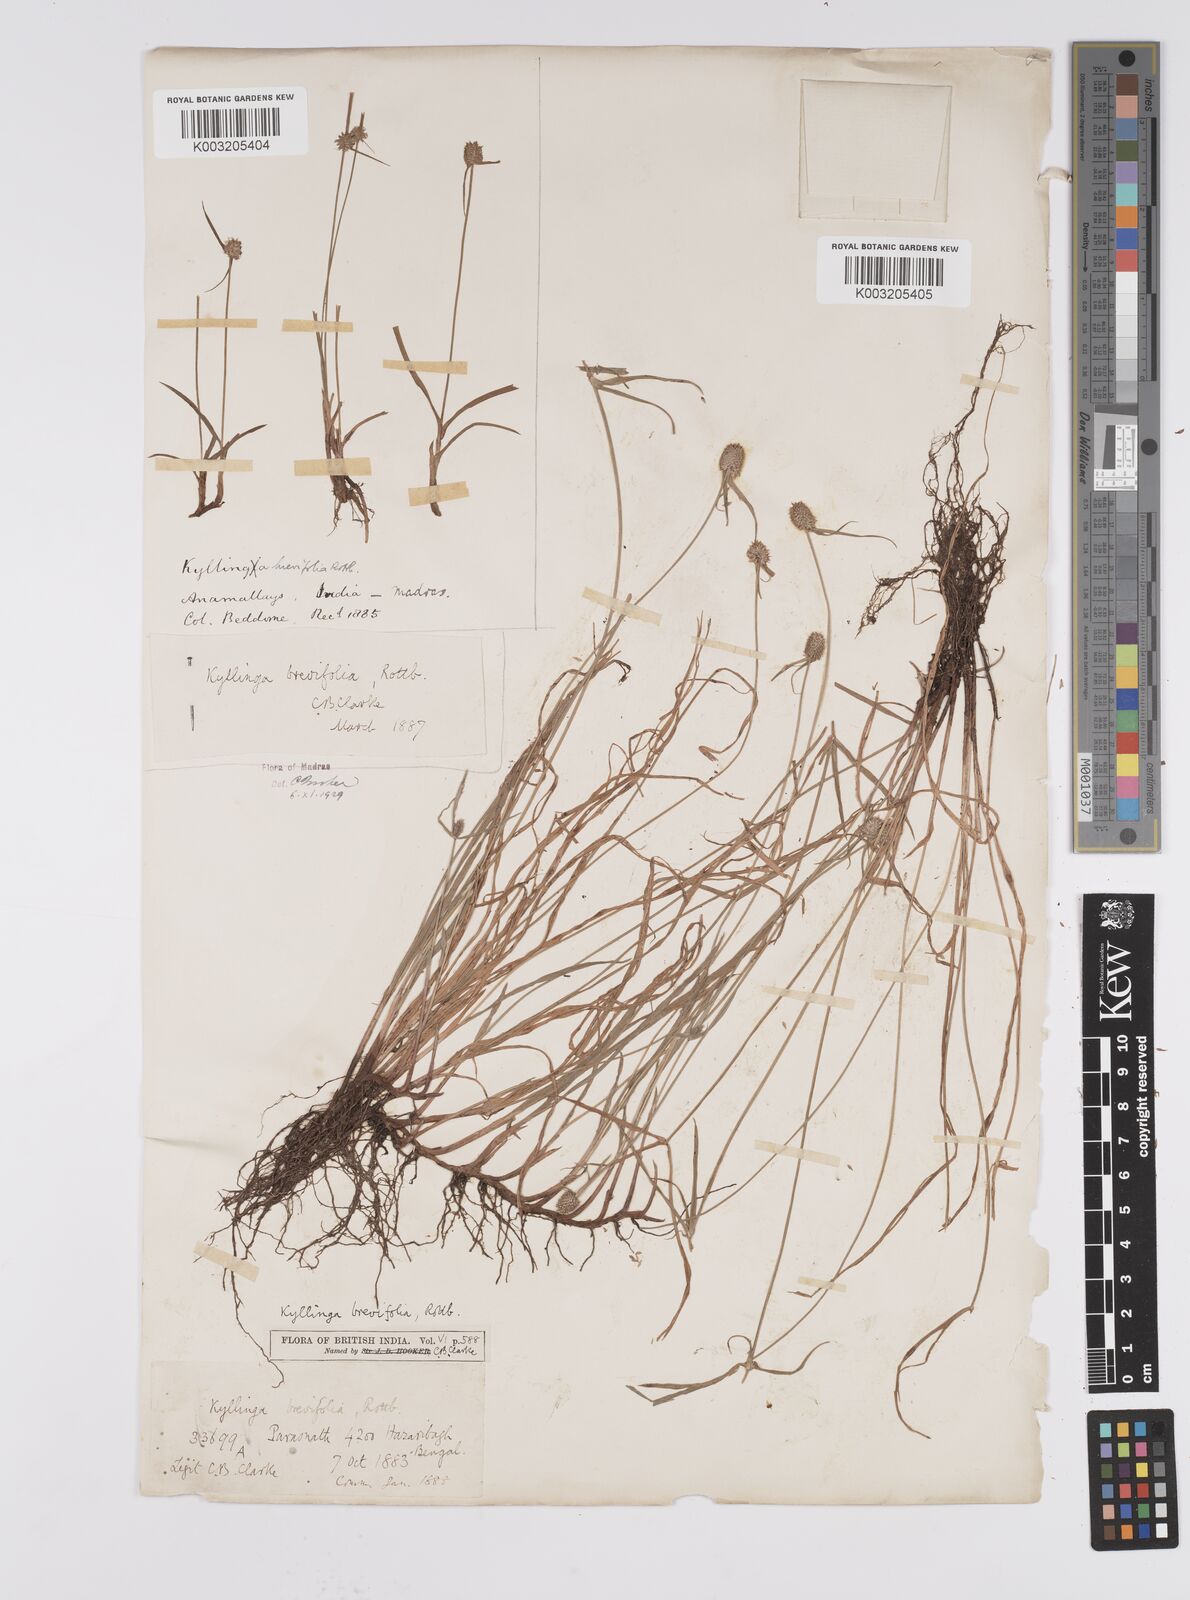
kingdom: Plantae
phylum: Tracheophyta
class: Liliopsida
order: Poales
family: Cyperaceae
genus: Cyperus
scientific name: Cyperus brevifolius
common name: Globe kyllinga
